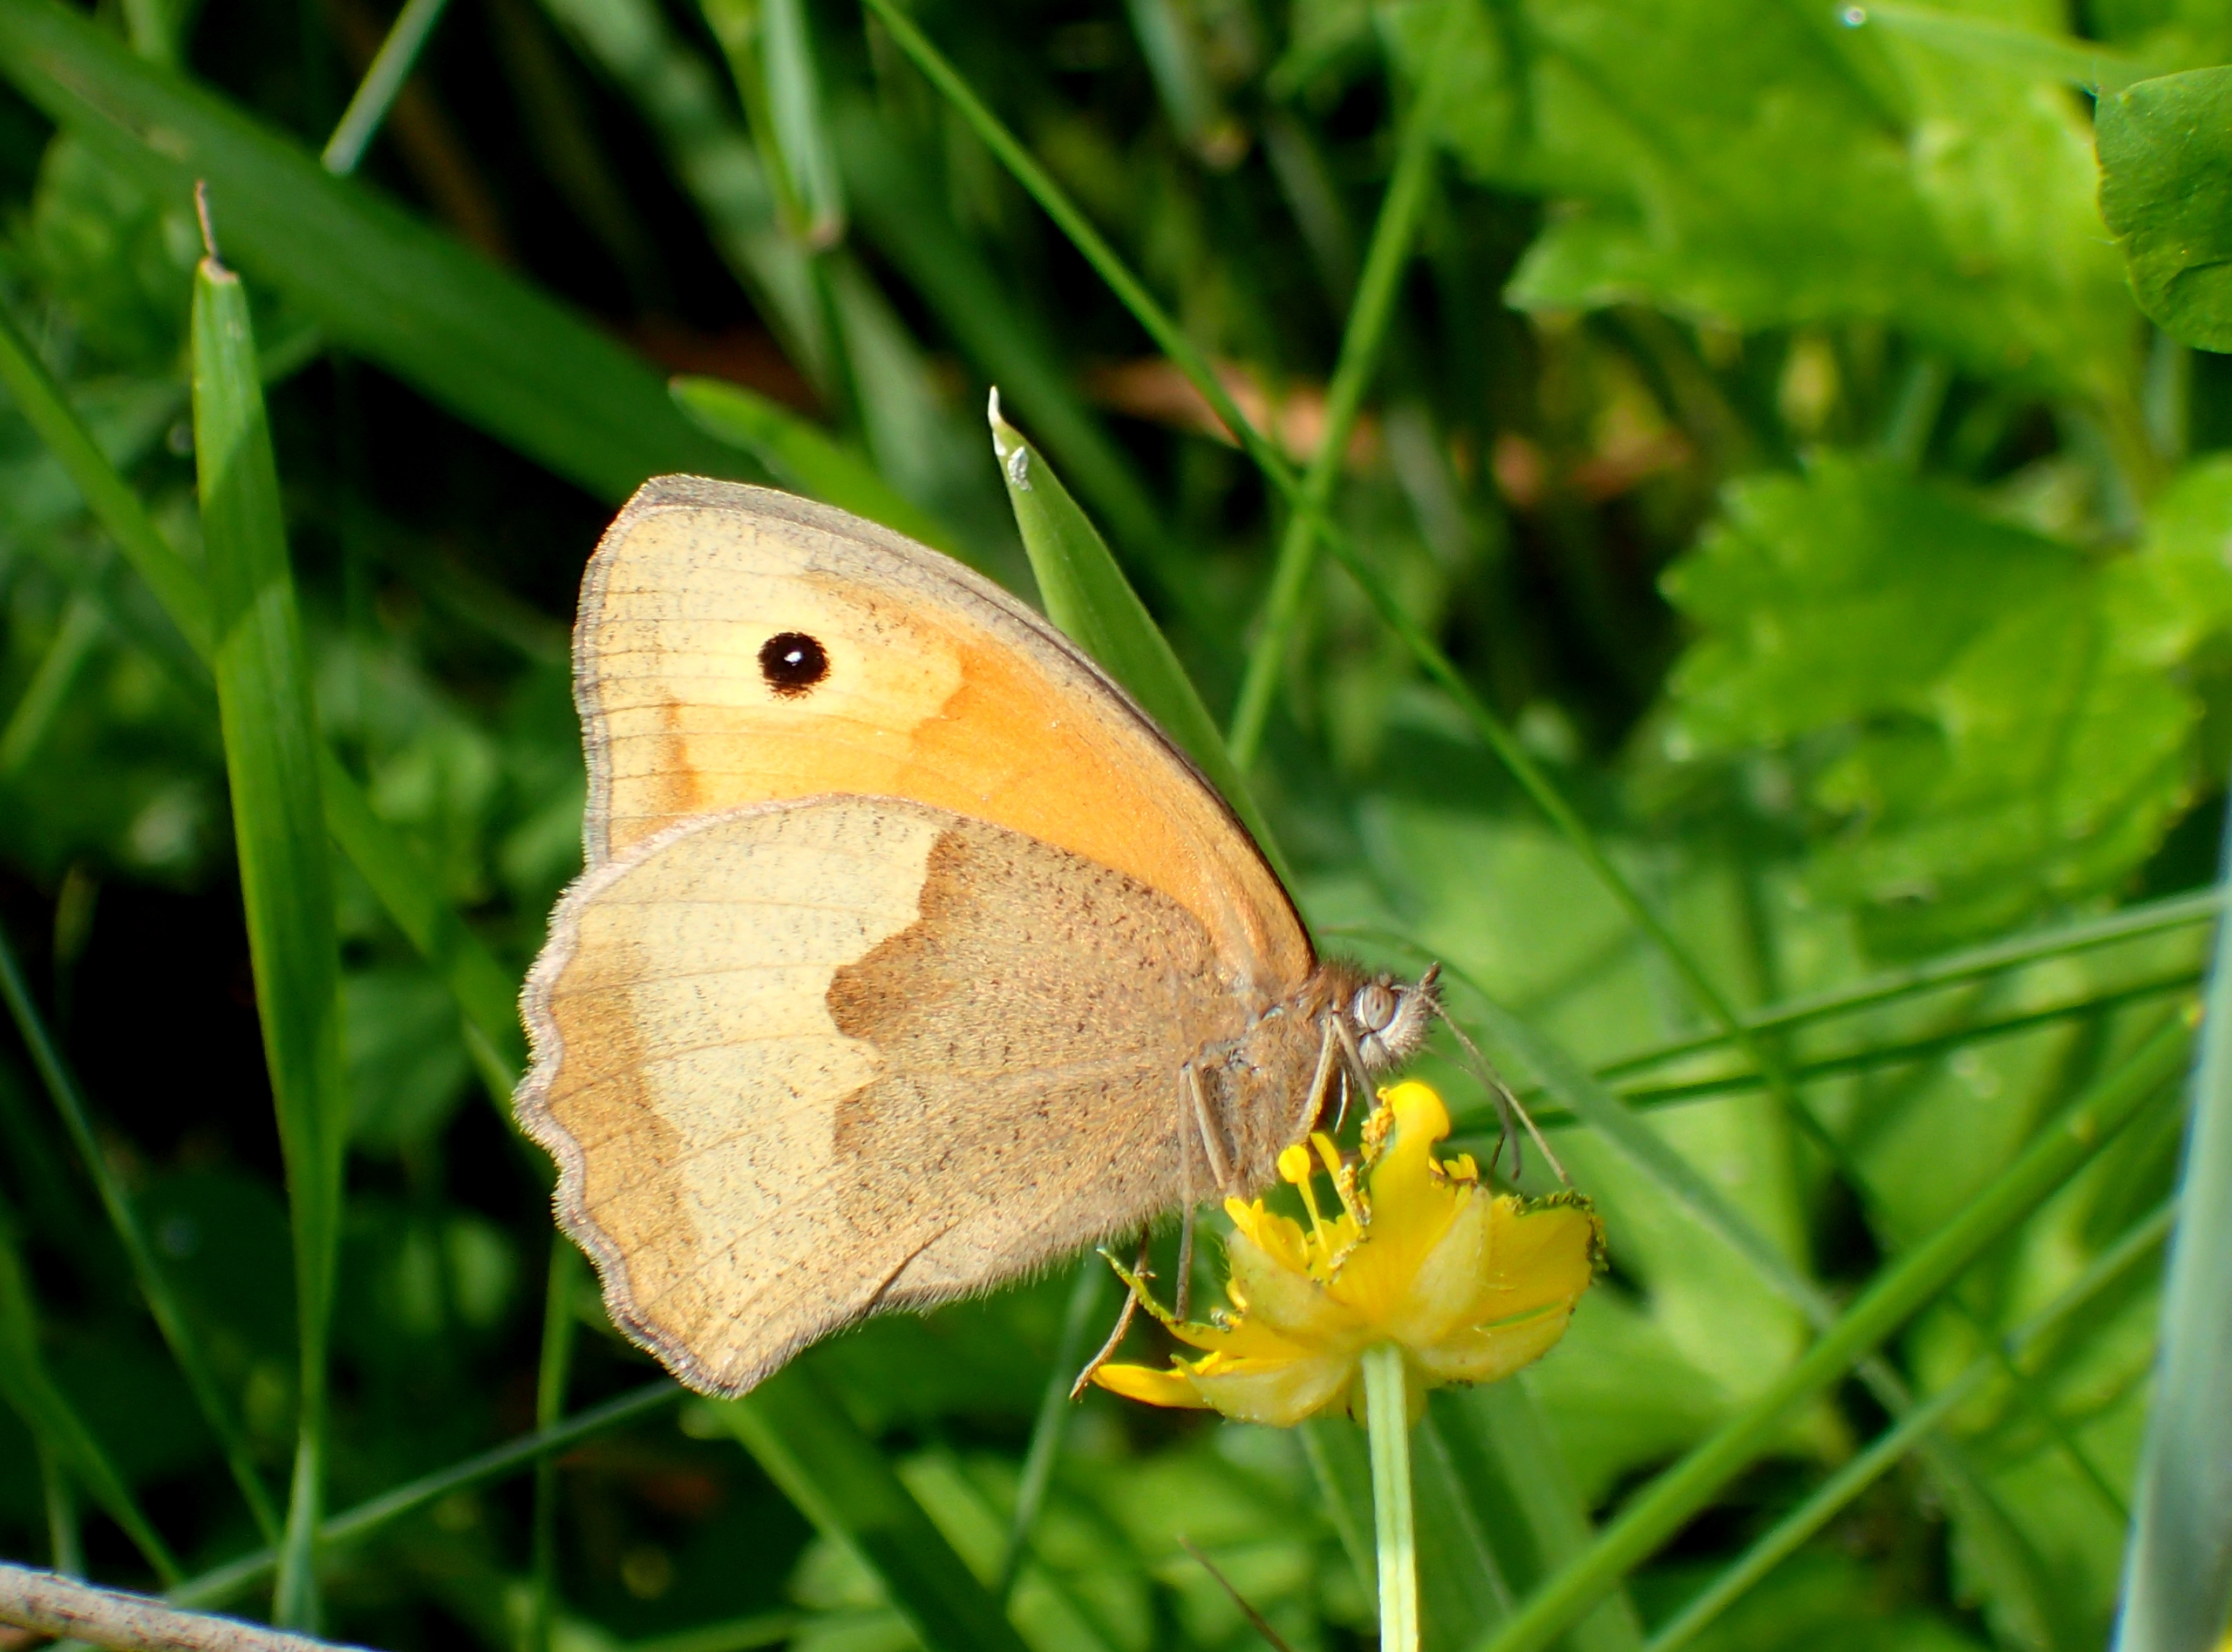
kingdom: Animalia
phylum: Arthropoda
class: Insecta
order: Lepidoptera
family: Nymphalidae
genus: Maniola
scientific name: Maniola jurtina
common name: Græsrandøje
